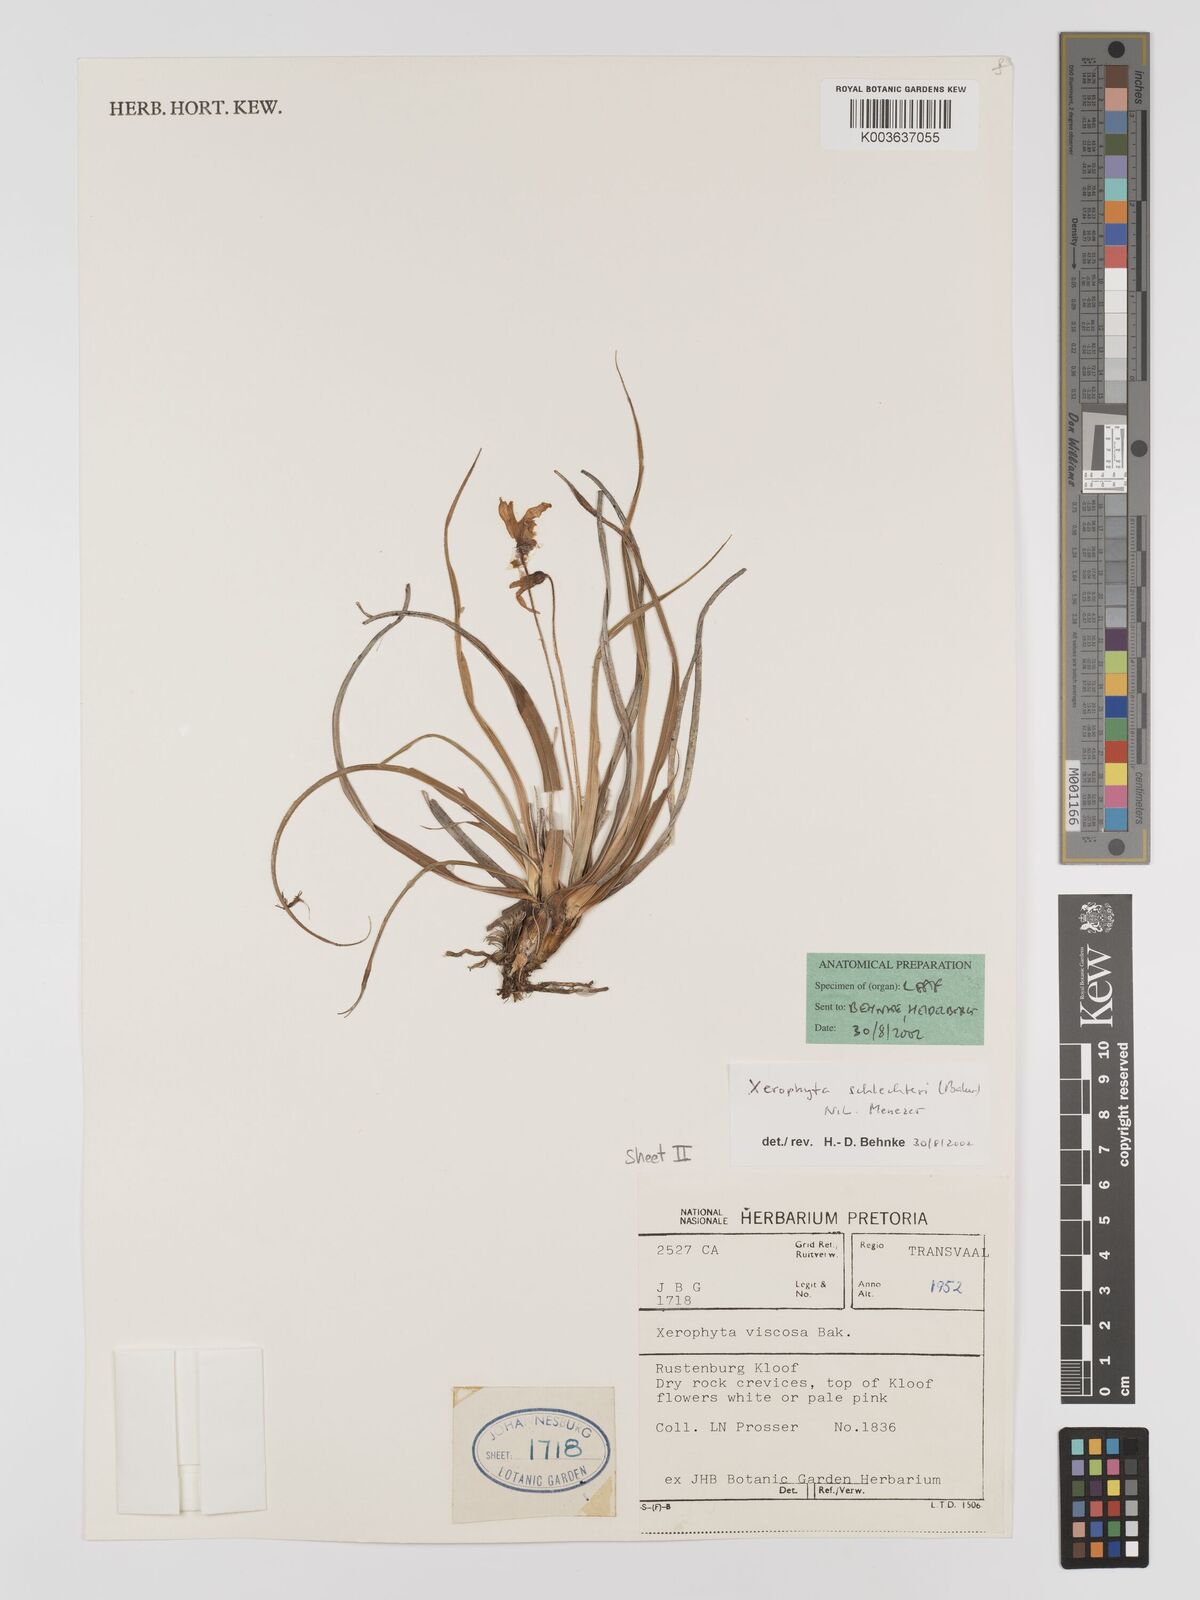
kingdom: Plantae
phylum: Tracheophyta
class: Liliopsida
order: Pandanales
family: Velloziaceae
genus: Xerophyta
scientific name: Xerophyta schlechteri
